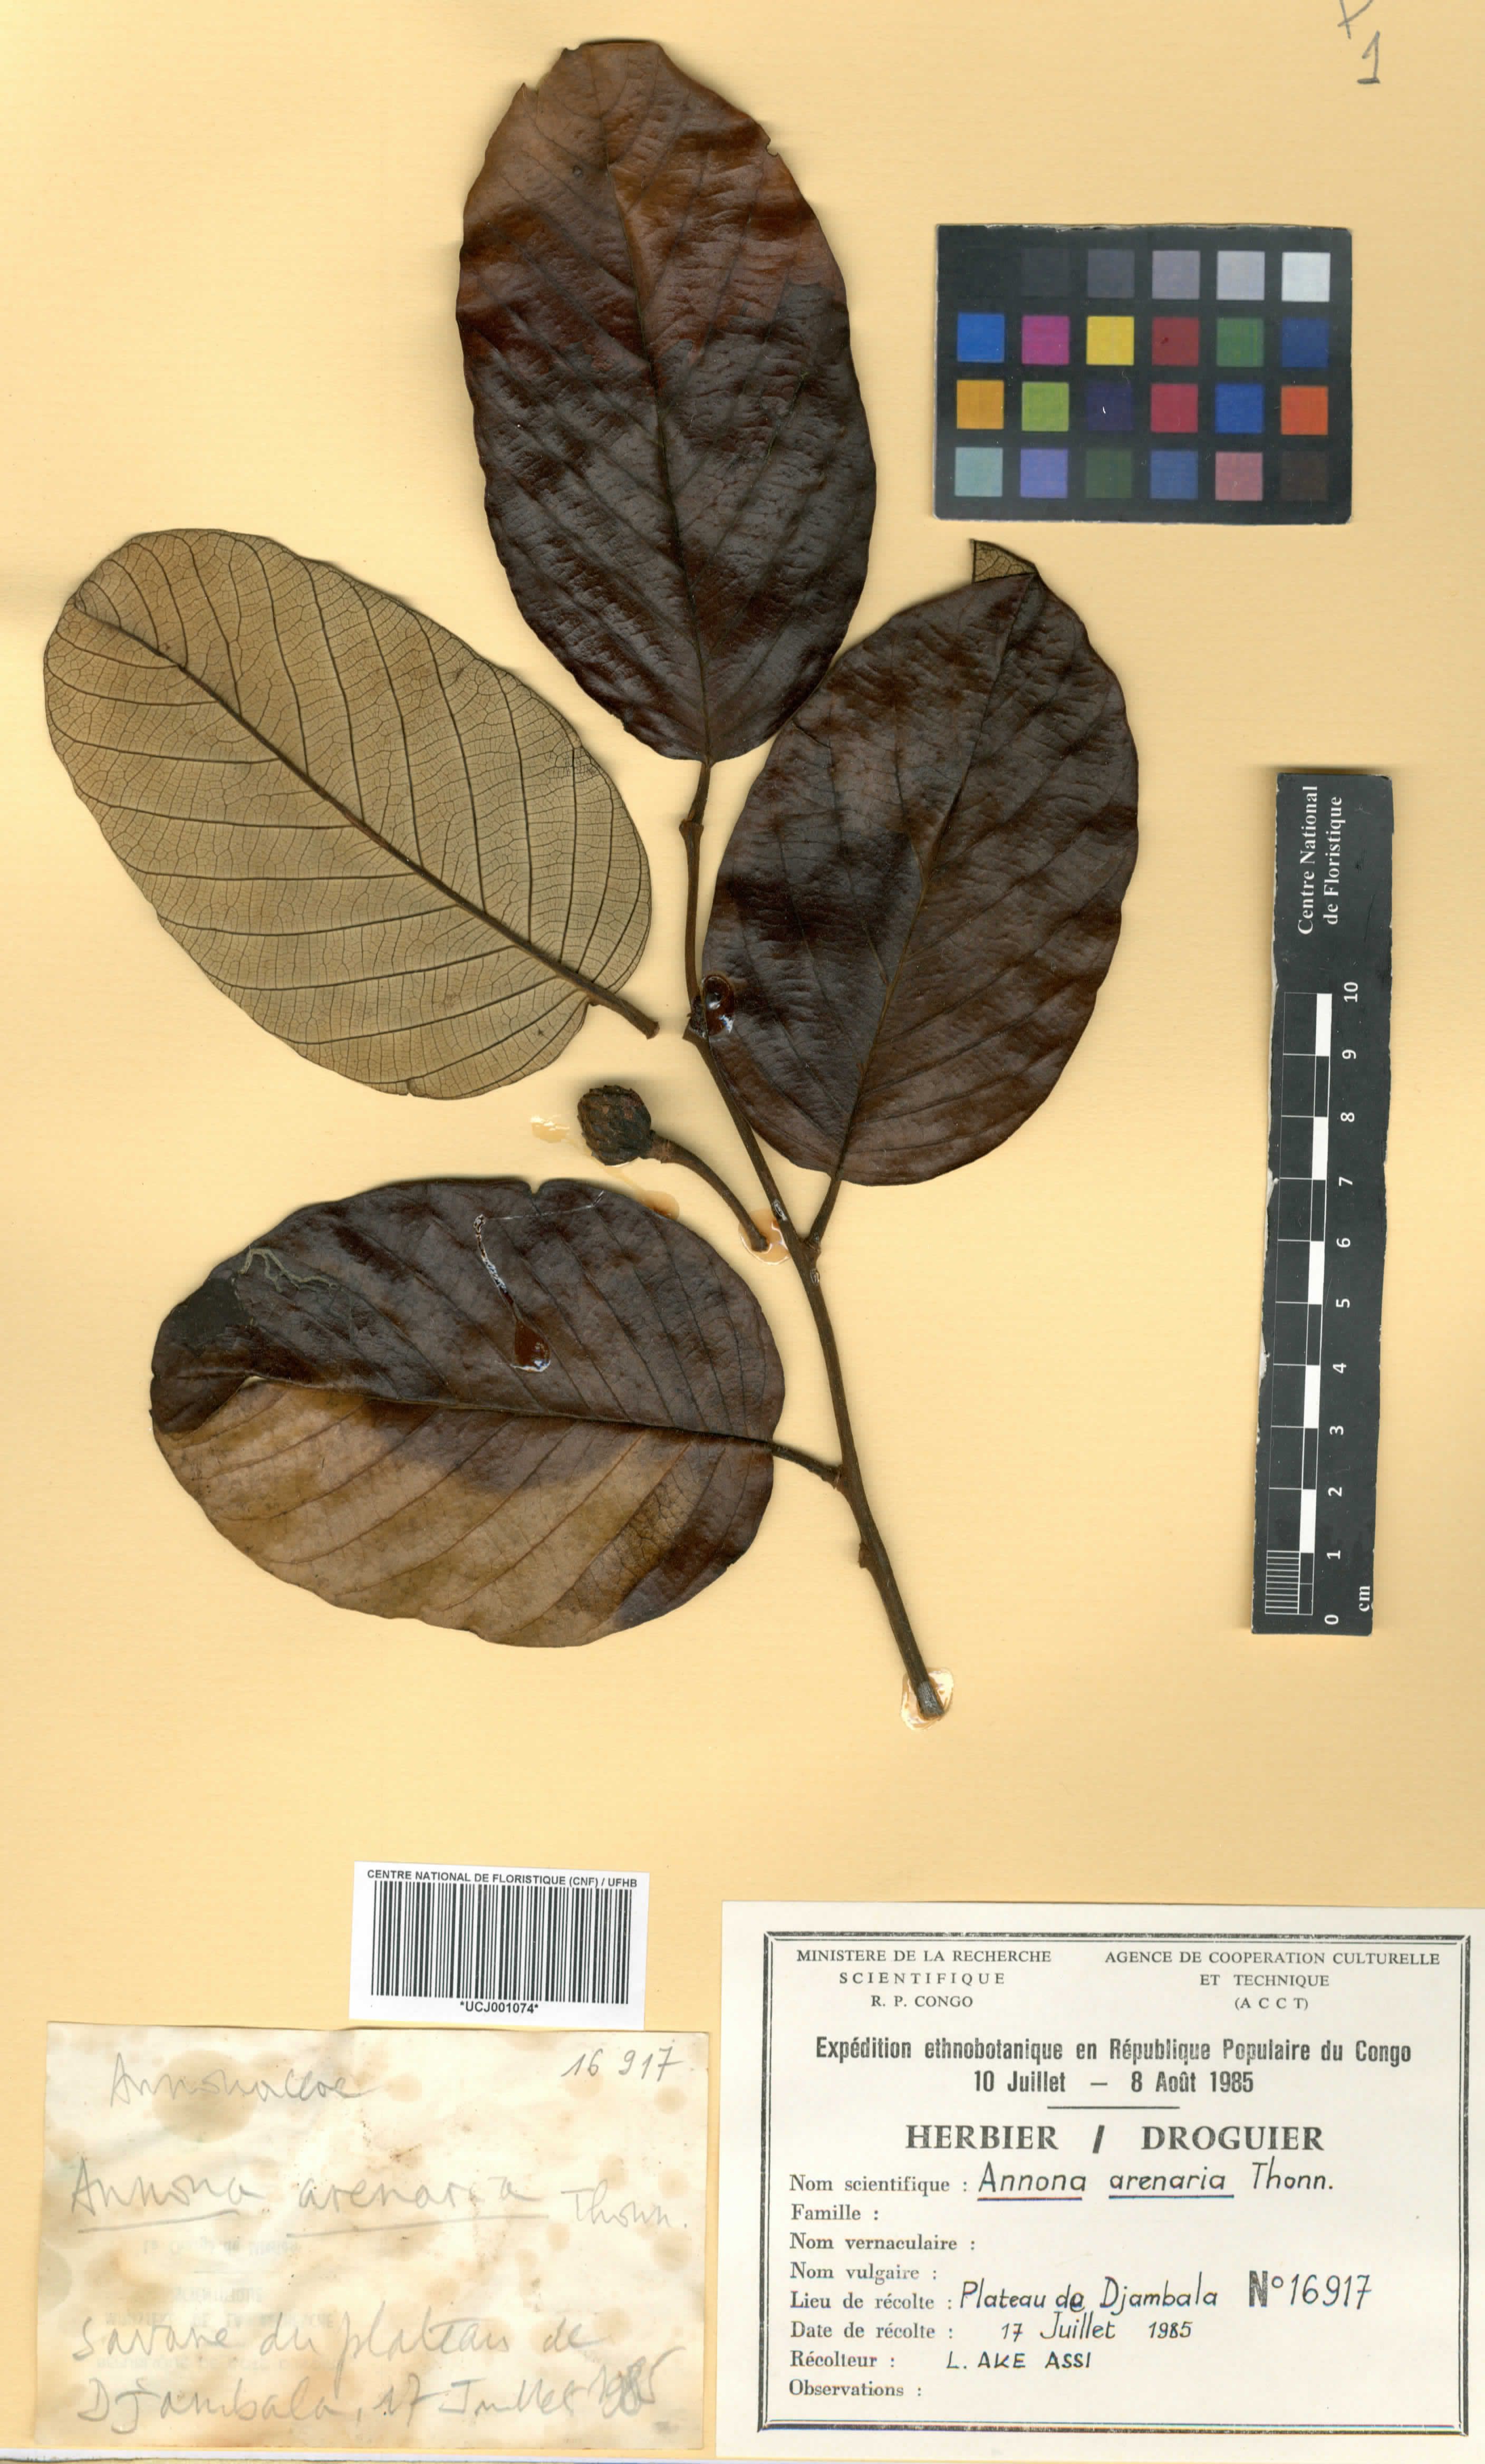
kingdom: Plantae
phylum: Tracheophyta
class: Magnoliopsida
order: Magnoliales
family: Annonaceae
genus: Annona
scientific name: Annona senegalensis
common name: Wild custard-apple
